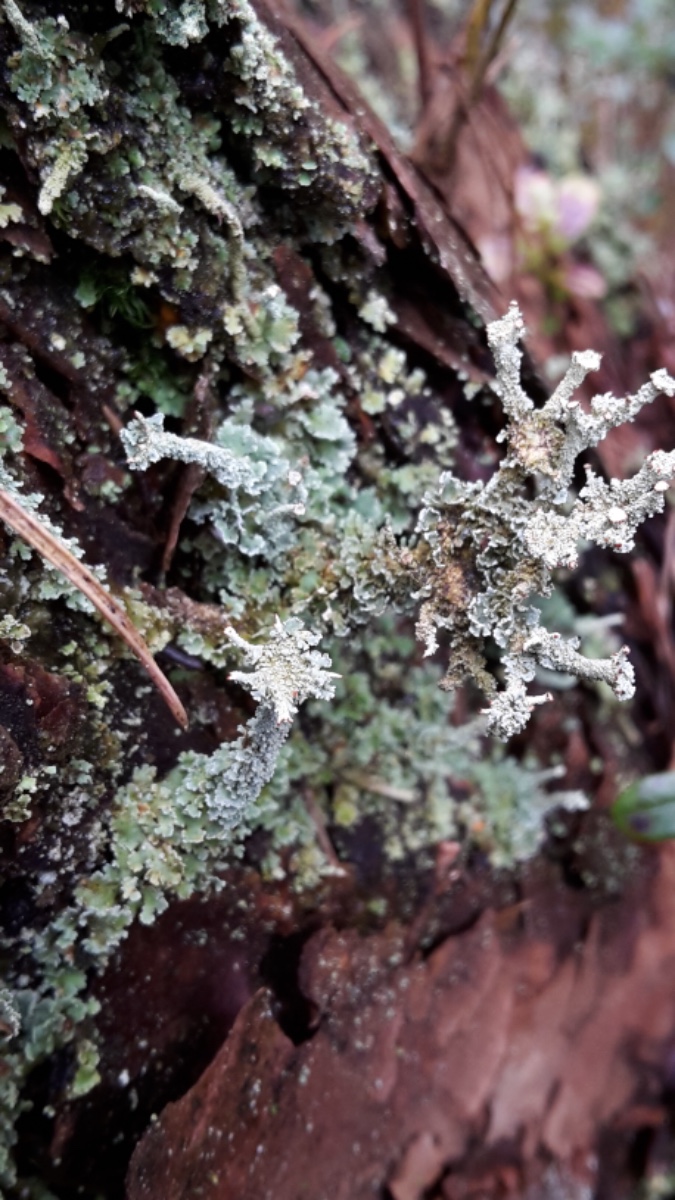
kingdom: Fungi
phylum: Ascomycota
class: Lecanoromycetes
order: Lecanorales
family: Cladoniaceae
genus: Cladonia
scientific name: Cladonia polydactyla
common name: vifte-bægerlav
